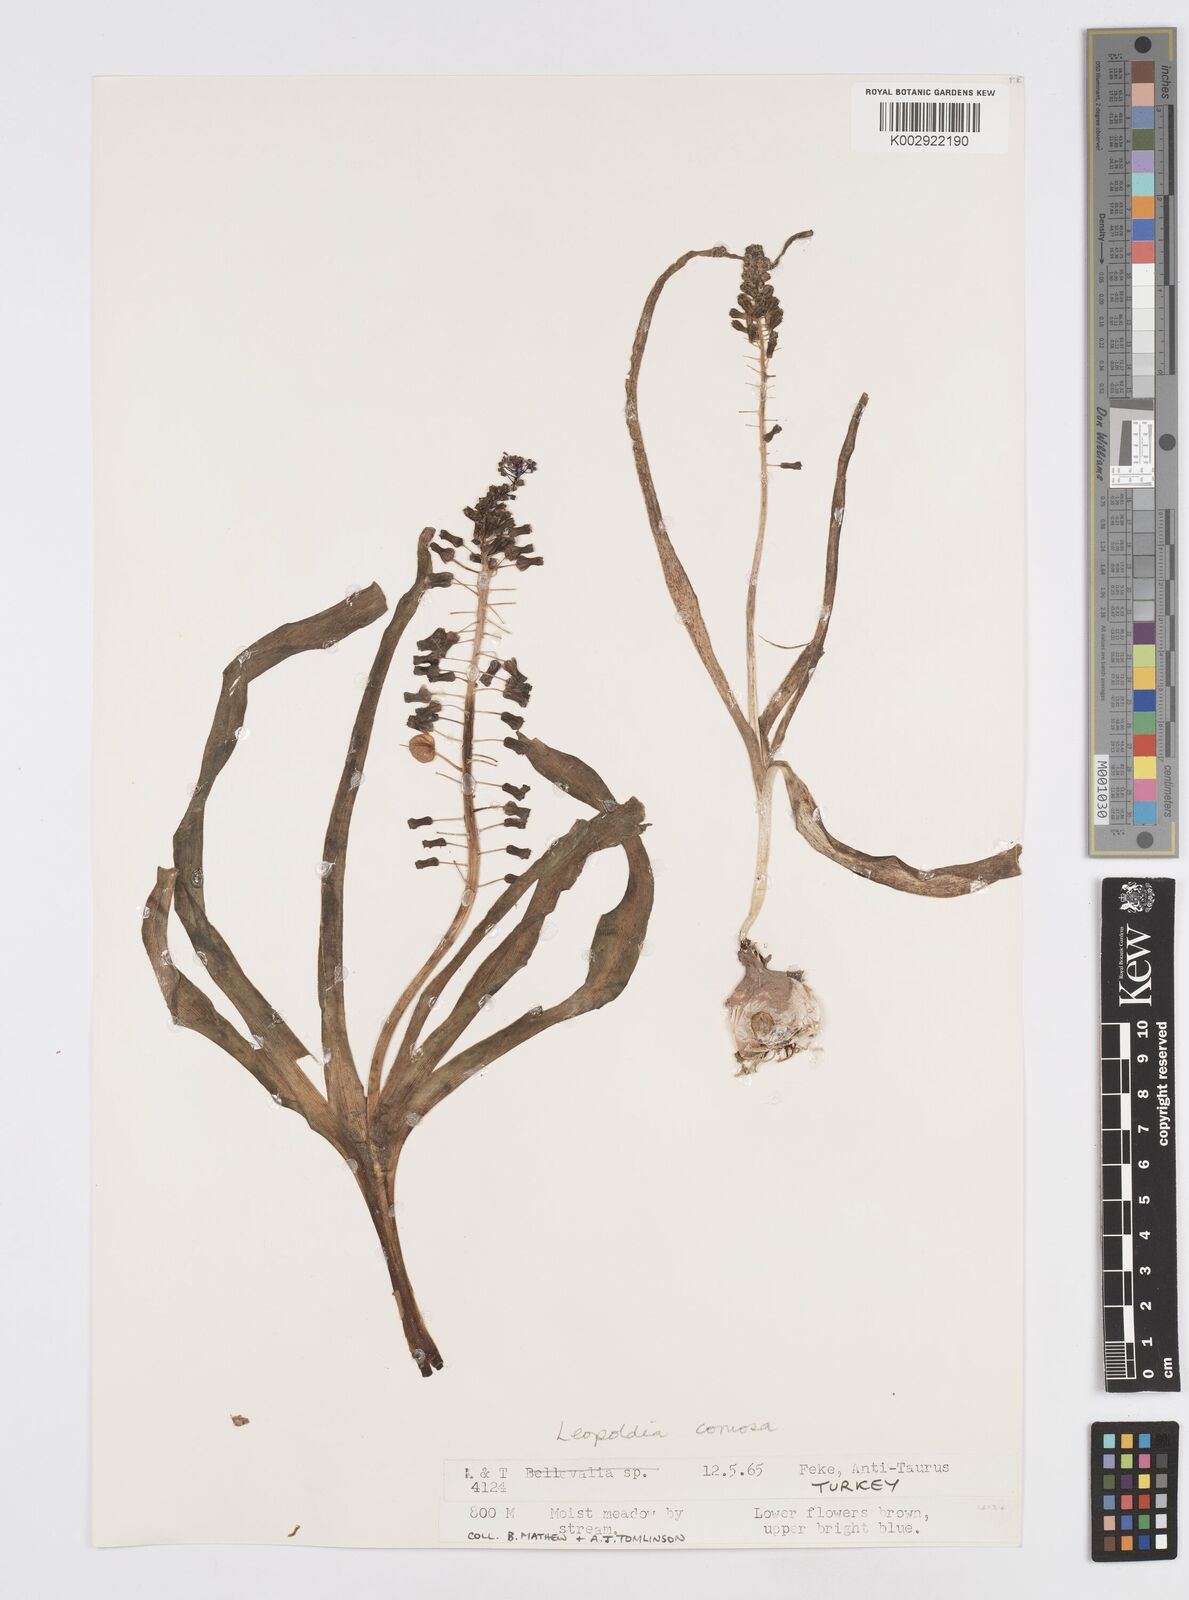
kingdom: Plantae
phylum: Tracheophyta
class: Liliopsida
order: Asparagales
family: Asparagaceae
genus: Muscari
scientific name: Muscari comosum
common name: Tassel hyacinth
